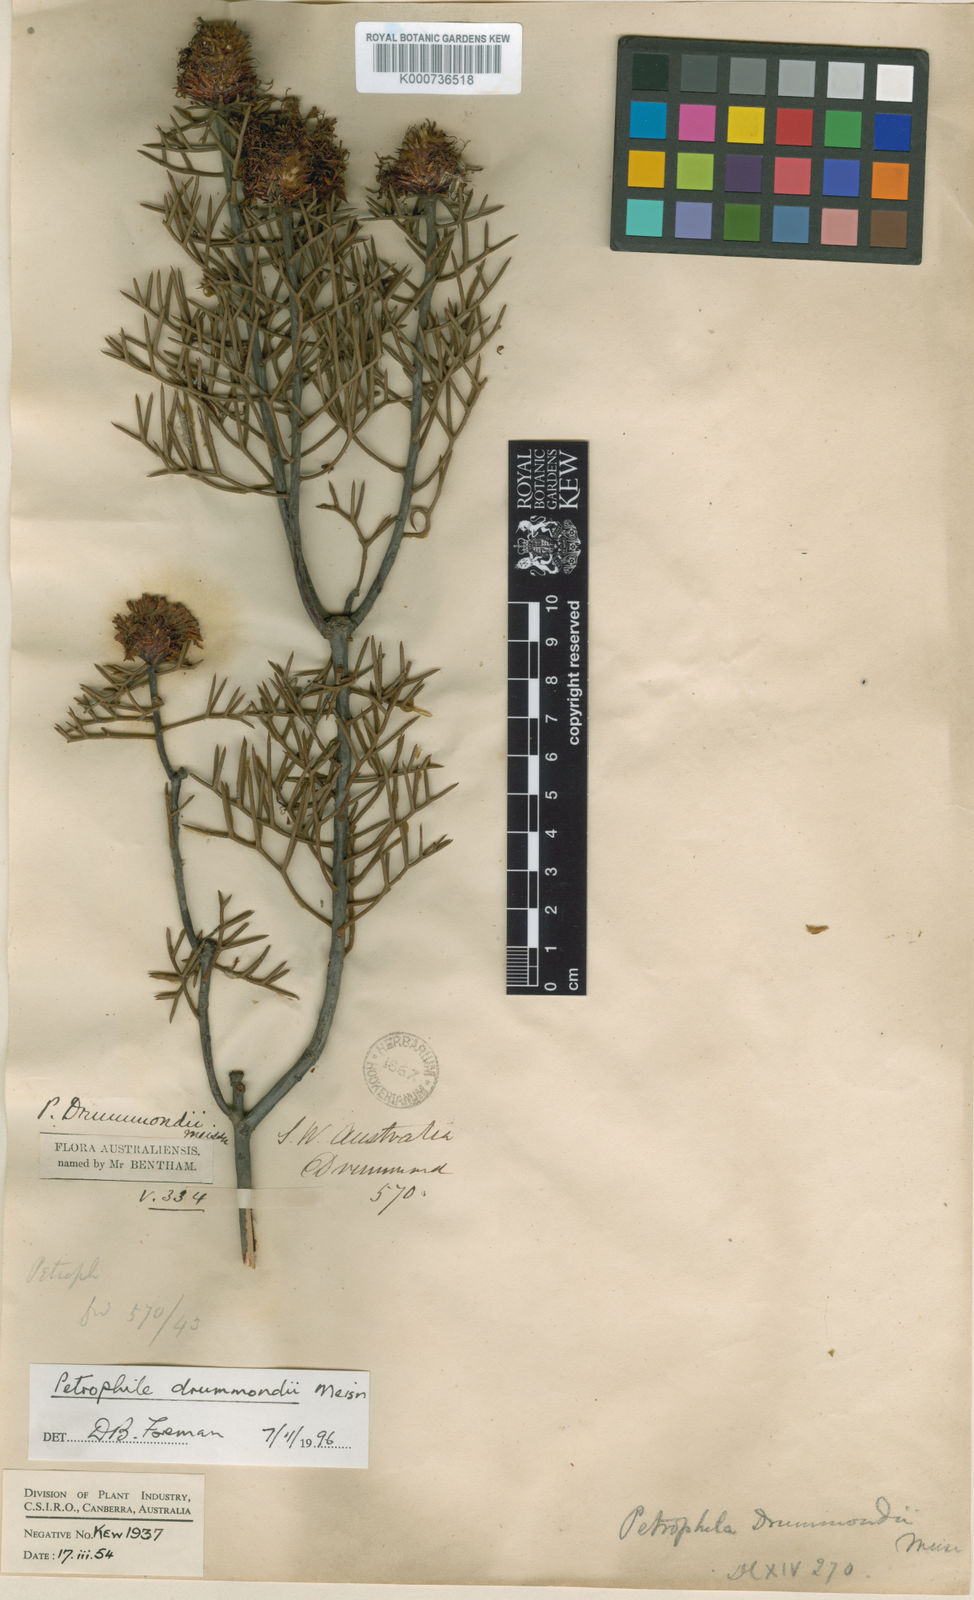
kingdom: Plantae
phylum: Tracheophyta
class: Magnoliopsida
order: Proteales
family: Proteaceae
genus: Petrophile
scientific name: Petrophile drummondii
